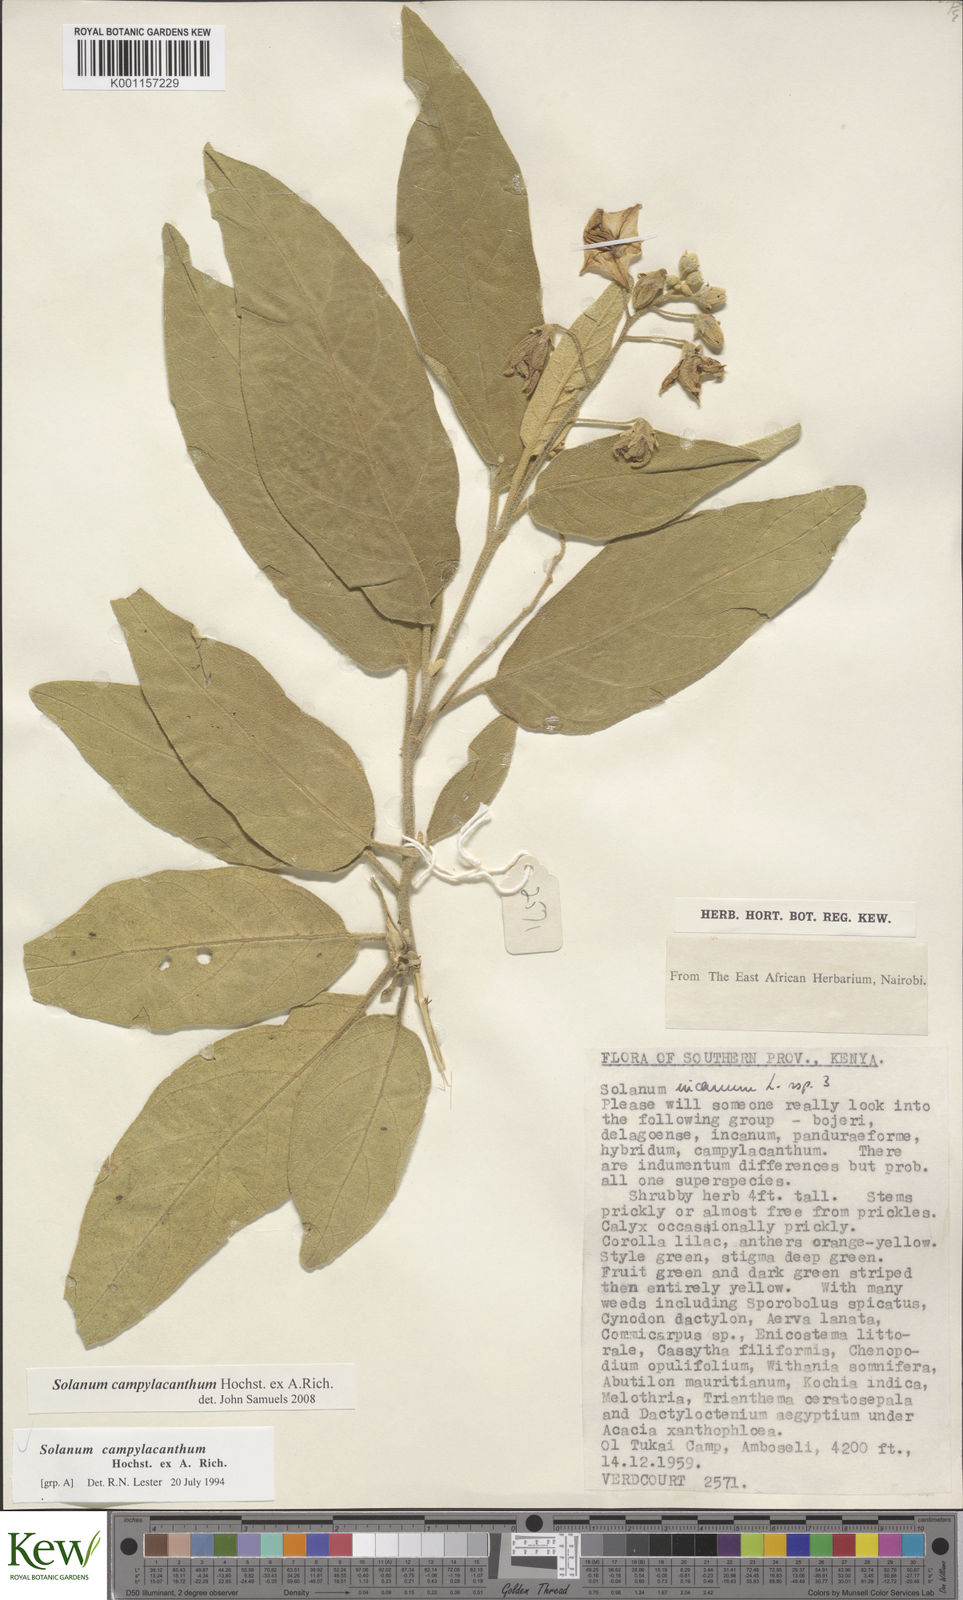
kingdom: Plantae
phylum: Tracheophyta
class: Magnoliopsida
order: Solanales
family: Solanaceae
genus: Solanum
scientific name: Solanum campylacanthum
